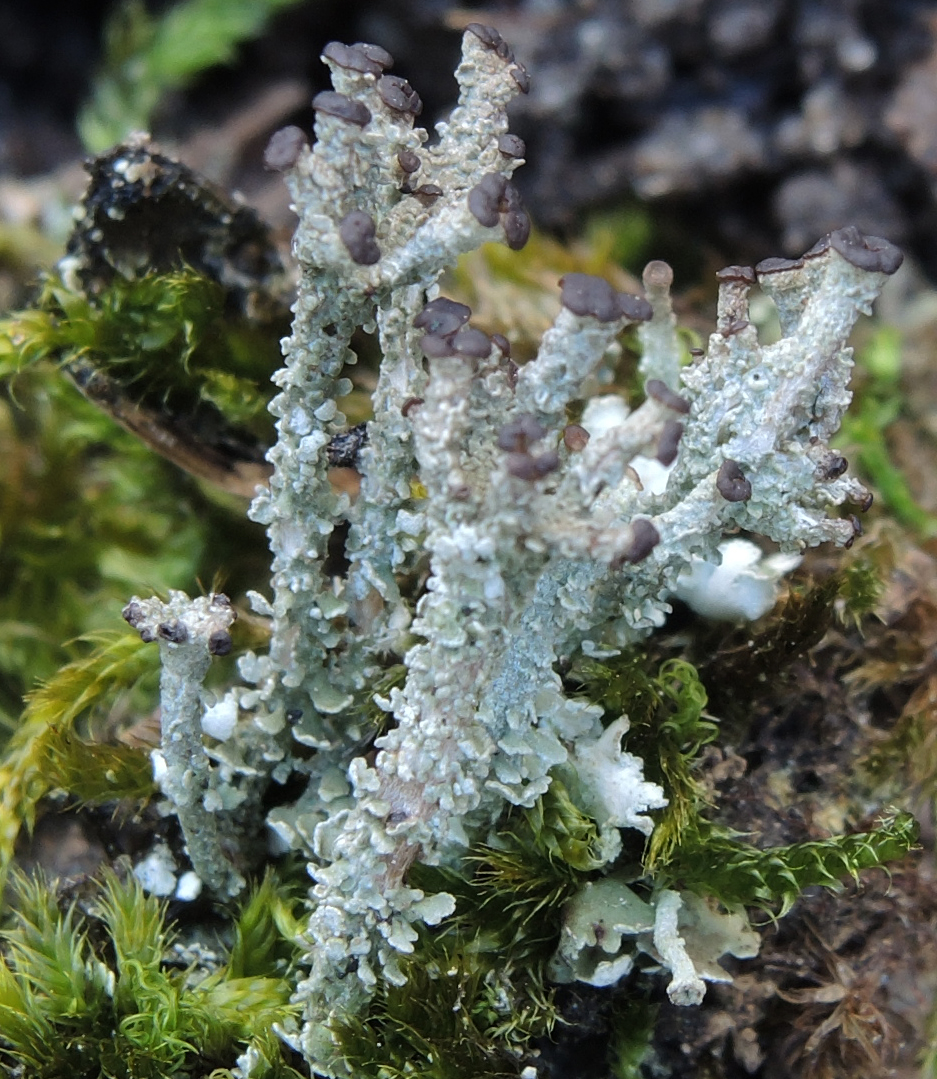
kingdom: Fungi
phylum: Ascomycota
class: Lecanoromycetes
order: Lecanorales
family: Cladoniaceae
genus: Cladonia
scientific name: Cladonia ramulosa
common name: kliddet bægerlav
